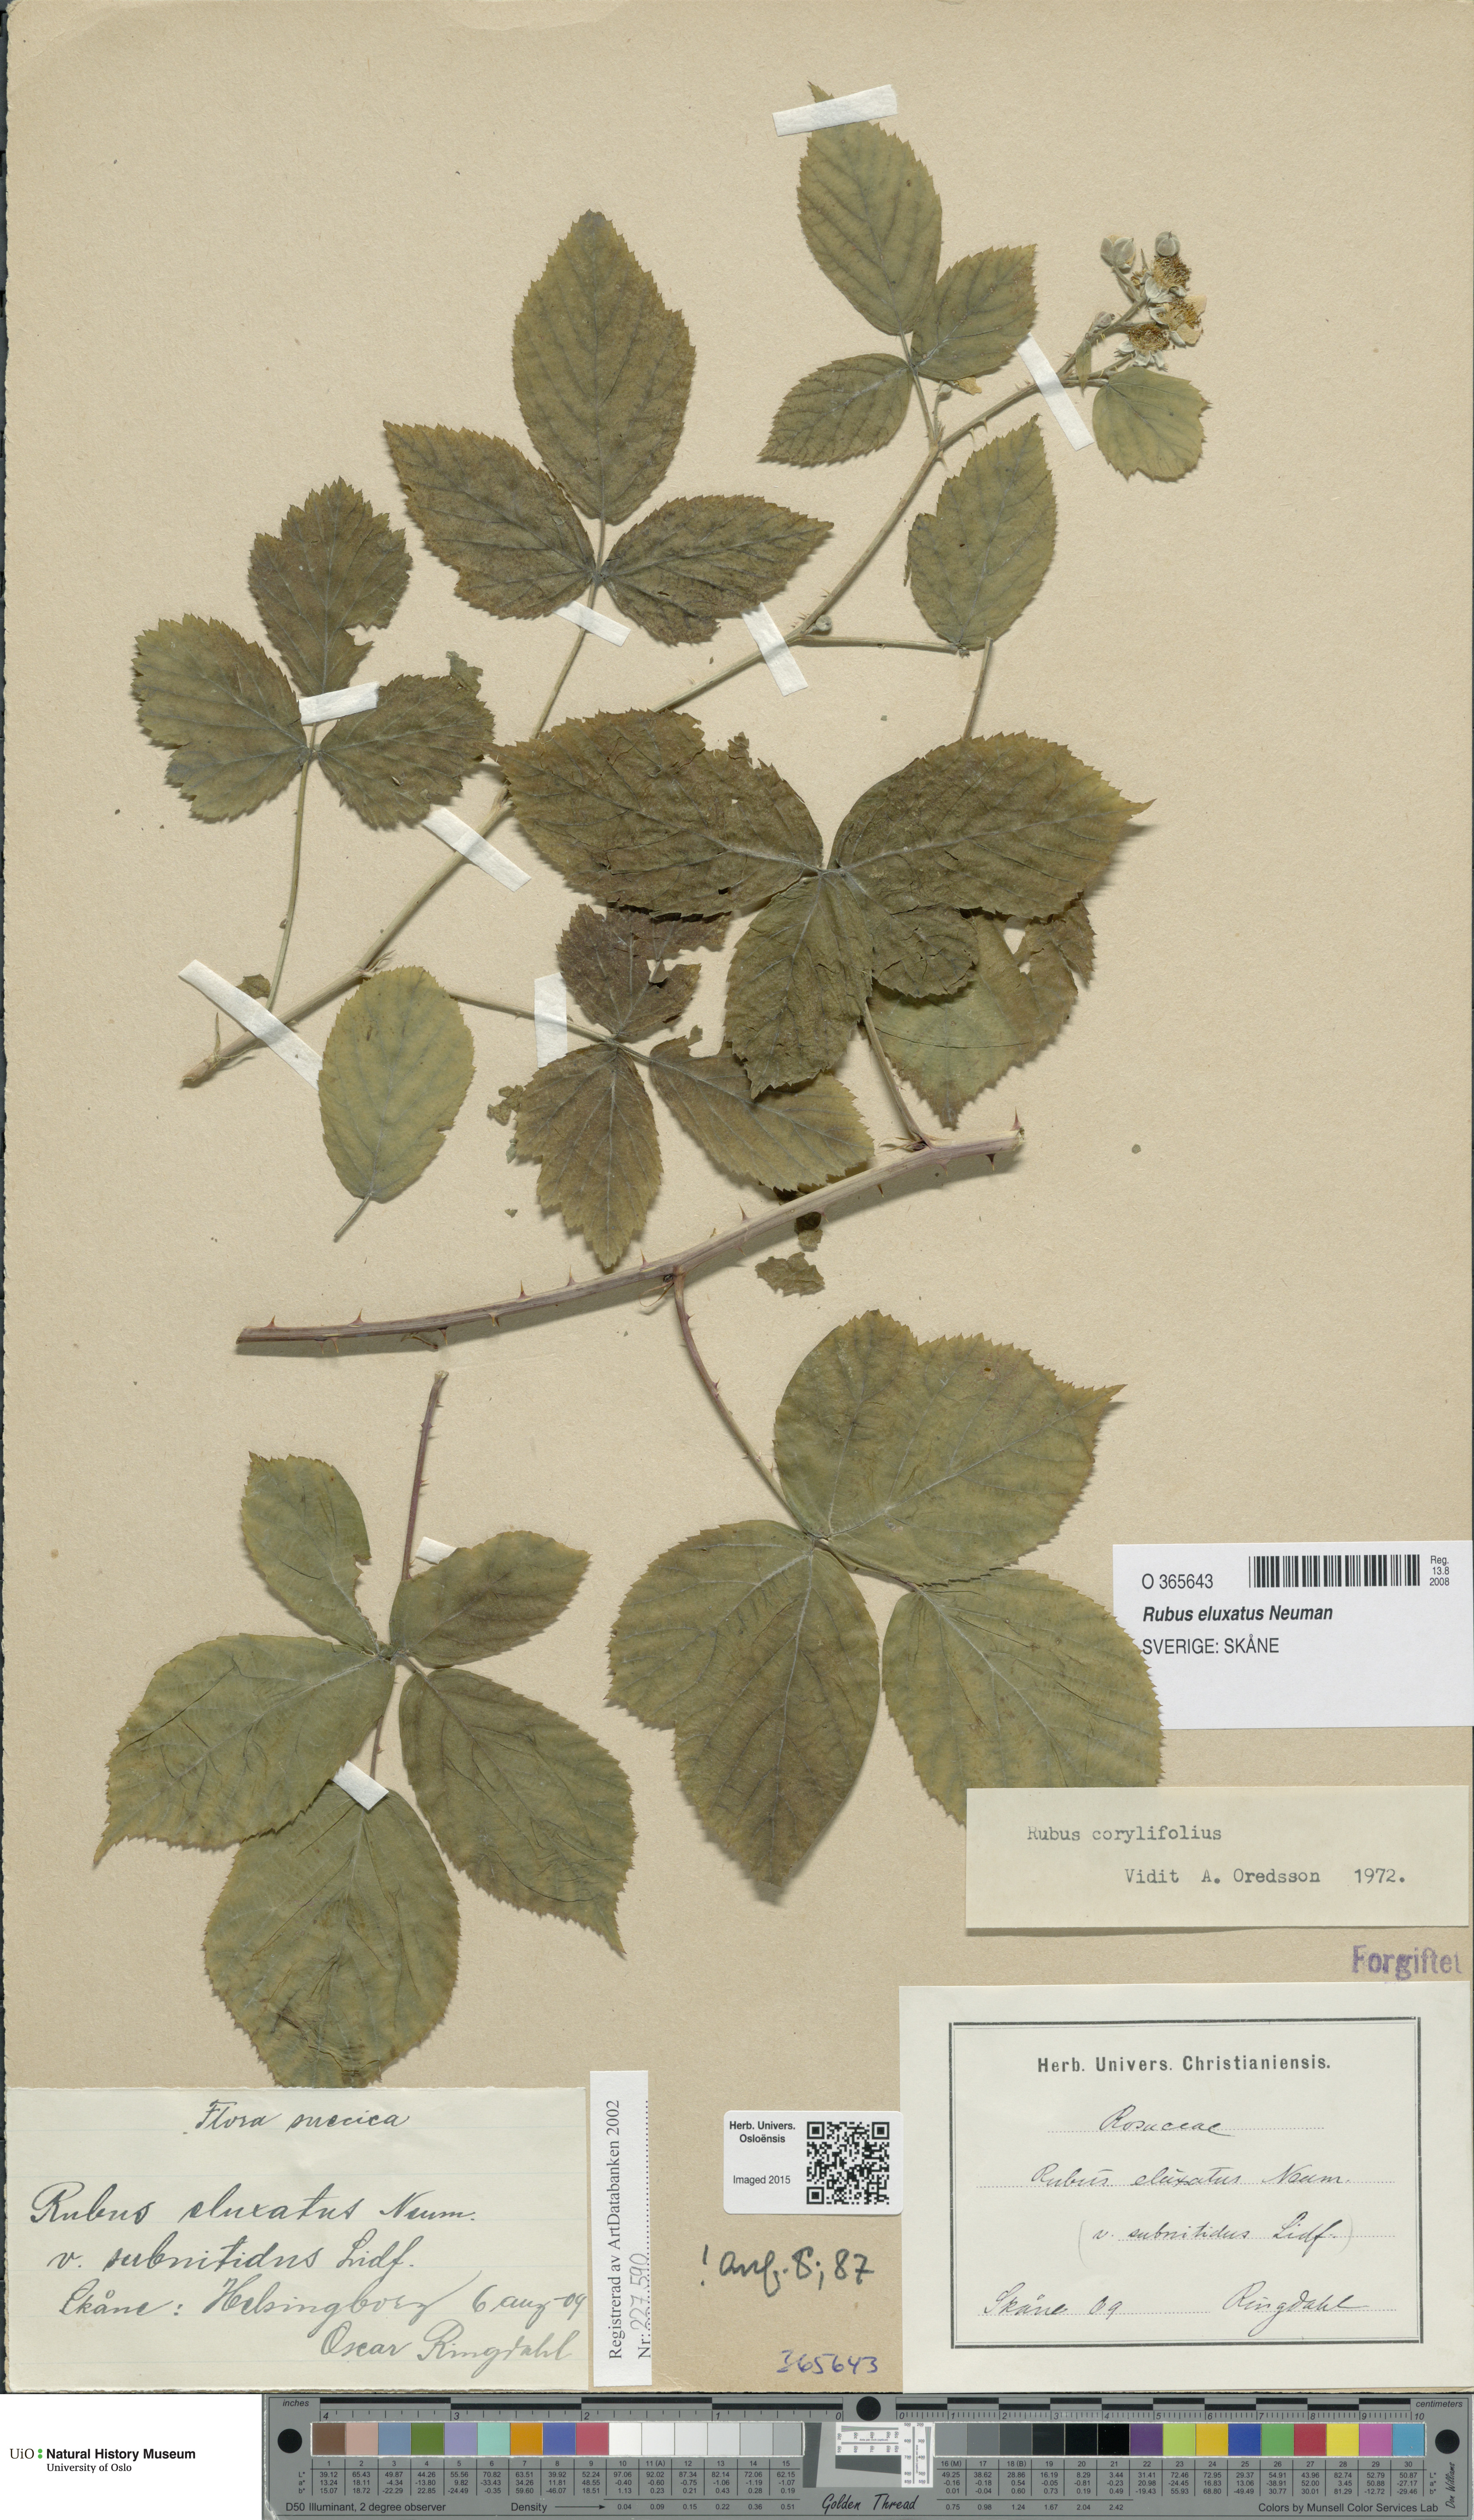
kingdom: Plantae
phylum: Tracheophyta
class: Magnoliopsida
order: Rosales
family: Rosaceae
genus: Rubus
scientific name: Rubus eluxatus
